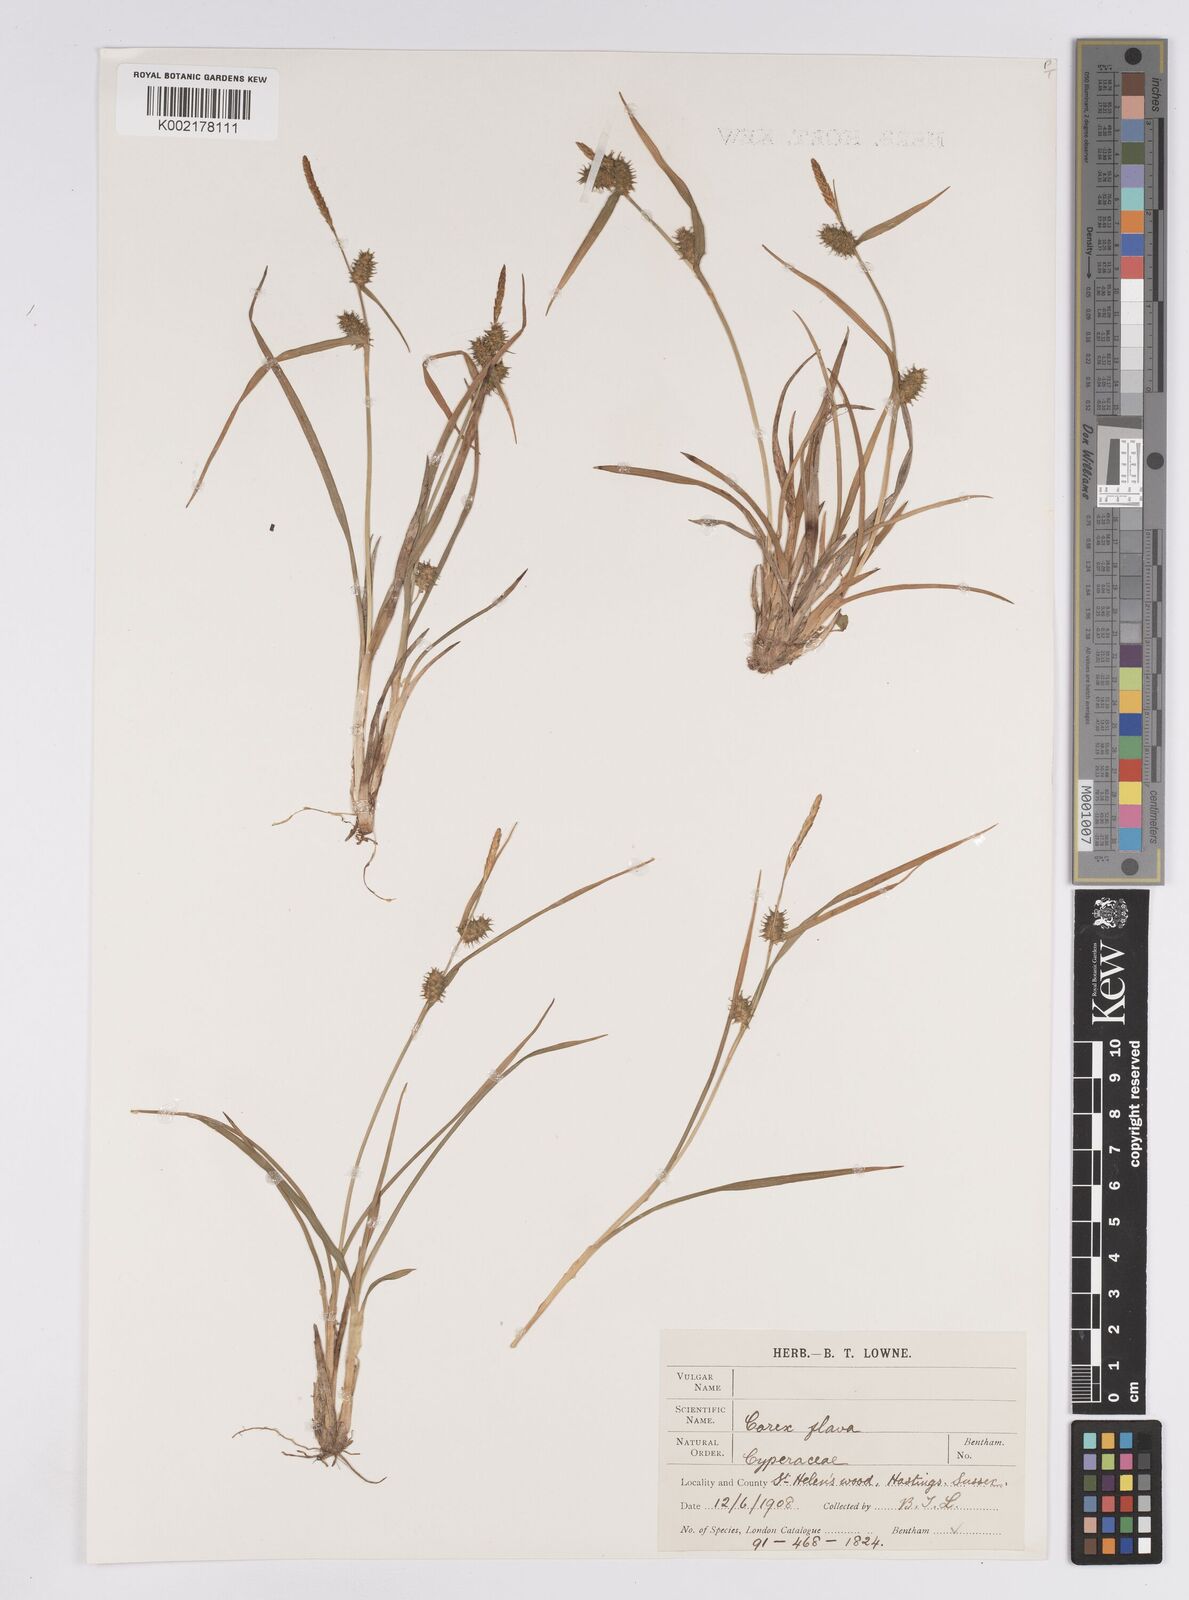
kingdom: Plantae
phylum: Tracheophyta
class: Liliopsida
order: Poales
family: Cyperaceae
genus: Carex
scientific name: Carex demissa
